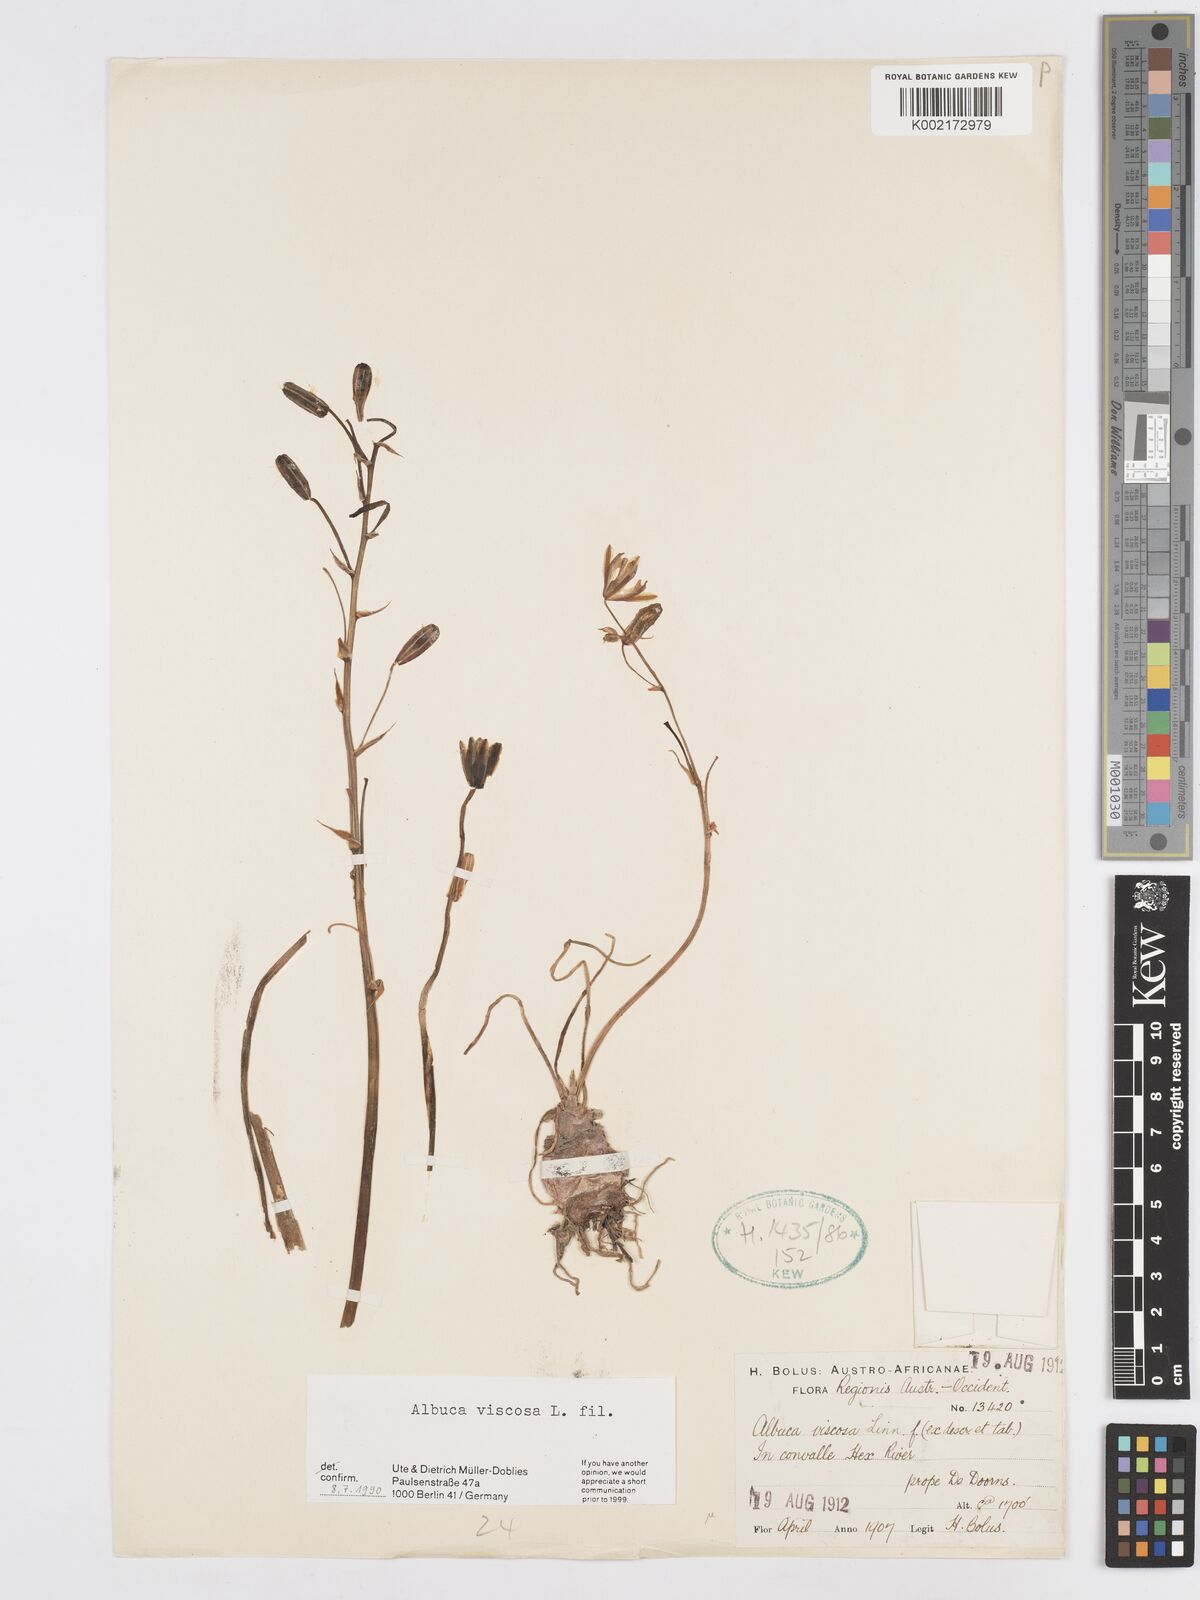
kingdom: Plantae
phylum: Tracheophyta
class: Liliopsida
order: Asparagales
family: Asparagaceae
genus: Albuca
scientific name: Albuca viscosa
